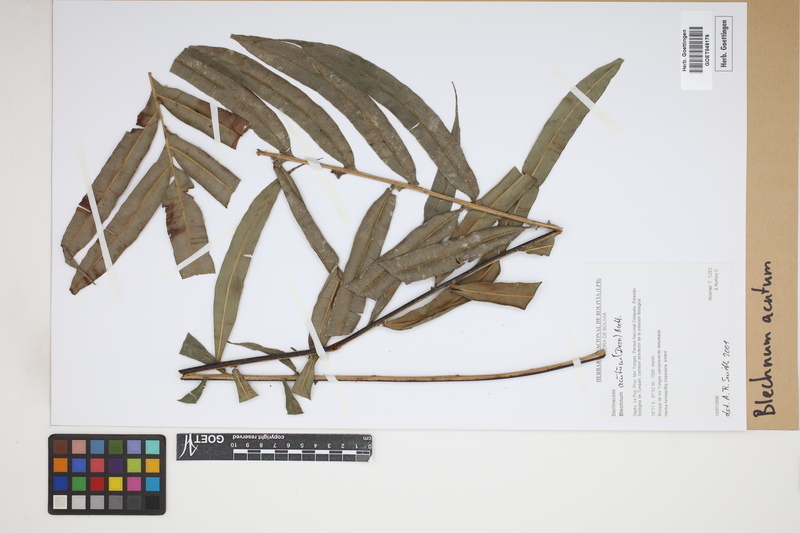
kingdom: Plantae
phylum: Tracheophyta
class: Polypodiopsida
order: Polypodiales
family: Blechnaceae
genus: Lomaridium
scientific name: Lomaridium acutum
